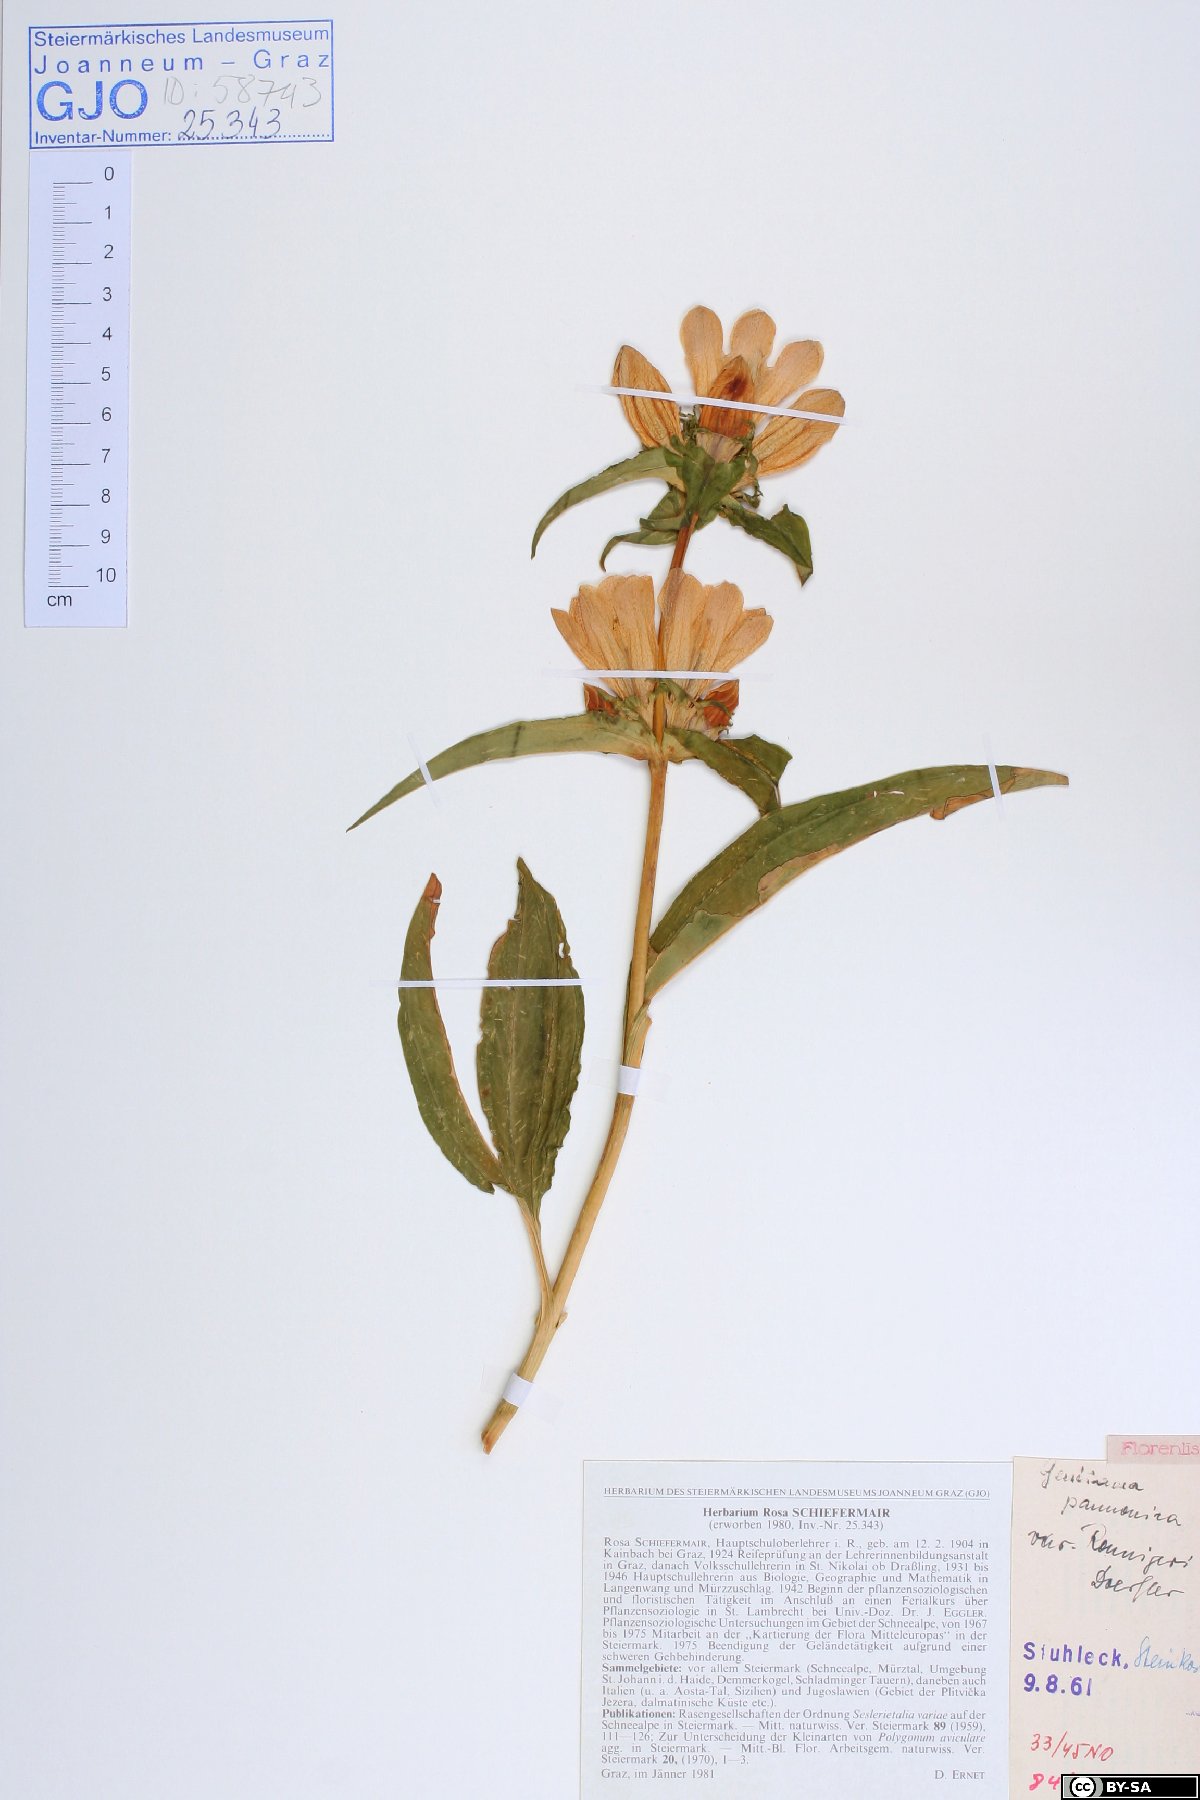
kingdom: Plantae
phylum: Tracheophyta
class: Magnoliopsida
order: Gentianales
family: Gentianaceae
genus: Gentiana
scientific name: Gentiana pannonica
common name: Hungarian gentian
